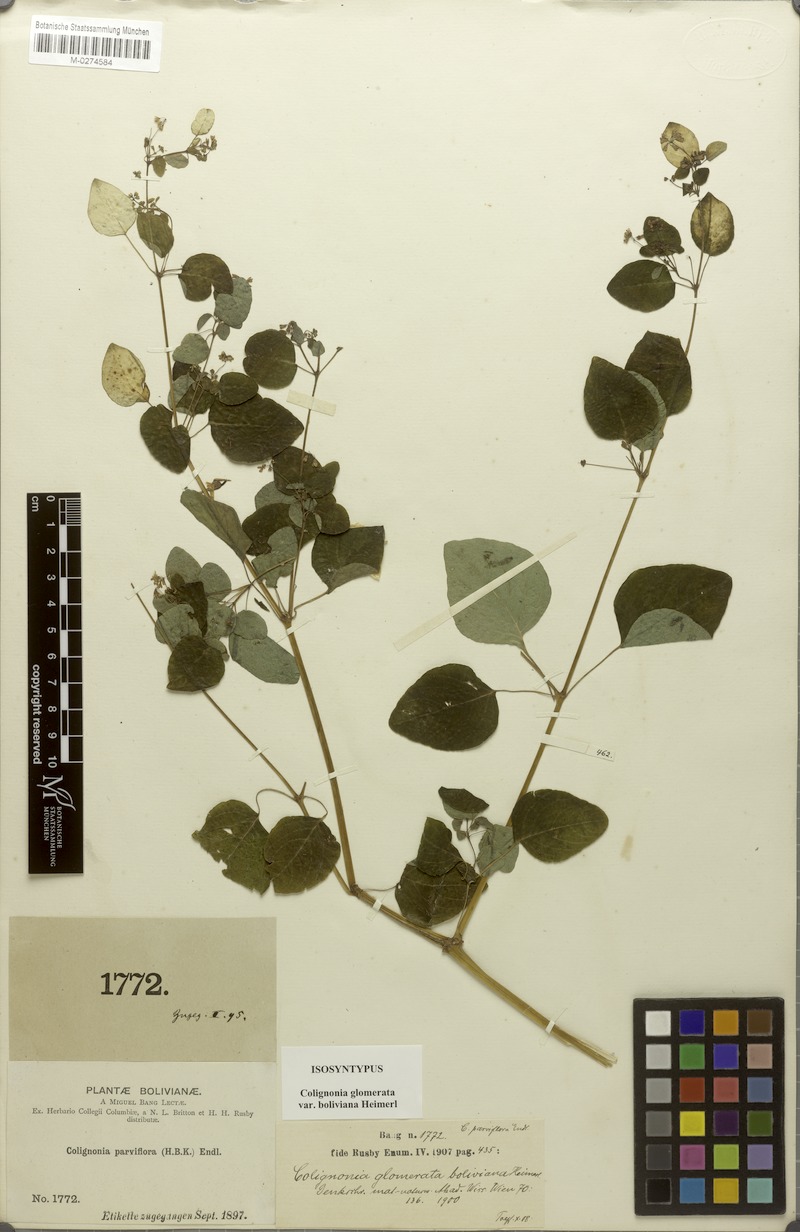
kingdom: Plantae
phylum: Tracheophyta
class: Magnoliopsida
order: Caryophyllales
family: Nyctaginaceae
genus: Colignonia
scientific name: Colignonia glomerata
